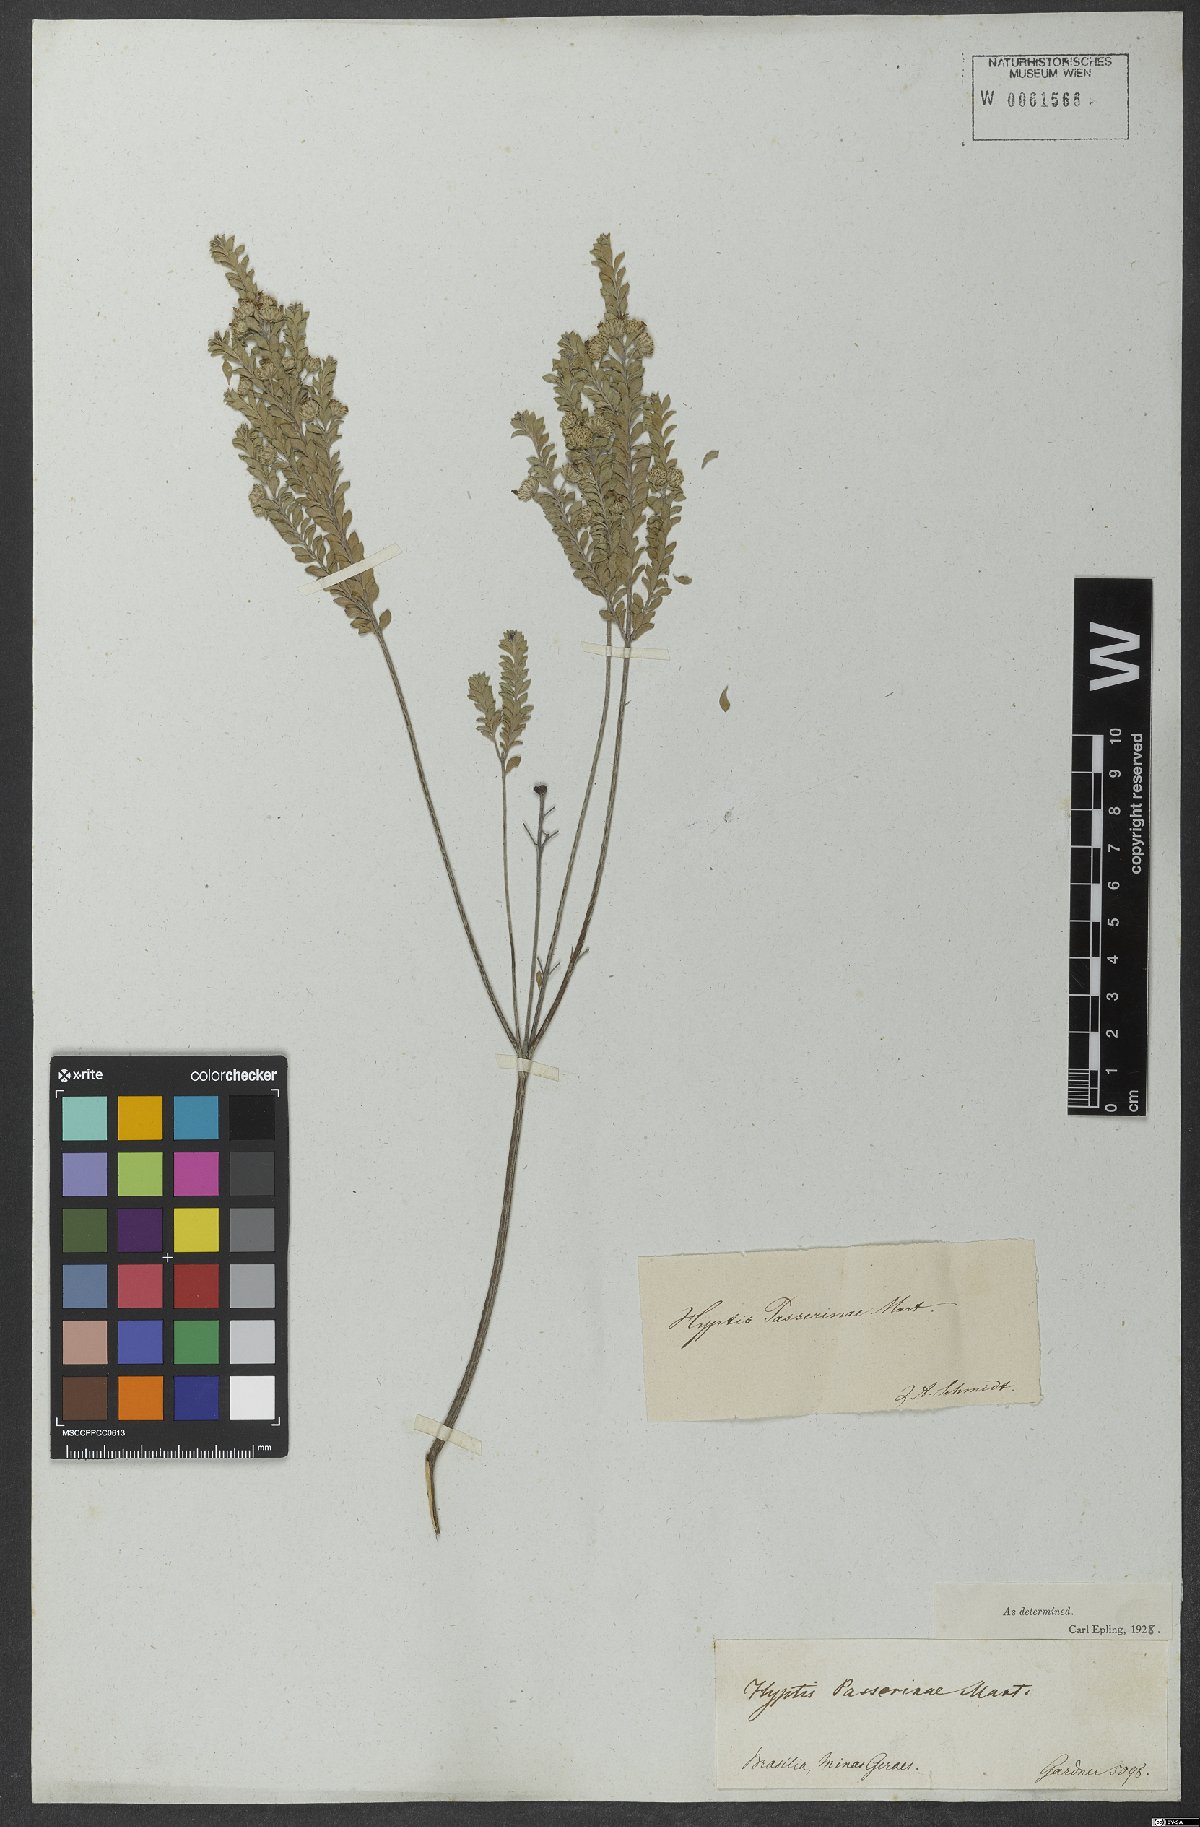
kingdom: Plantae
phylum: Tracheophyta
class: Magnoliopsida
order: Lamiales
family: Lamiaceae
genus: Hyptis
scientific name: Hyptis passerina
